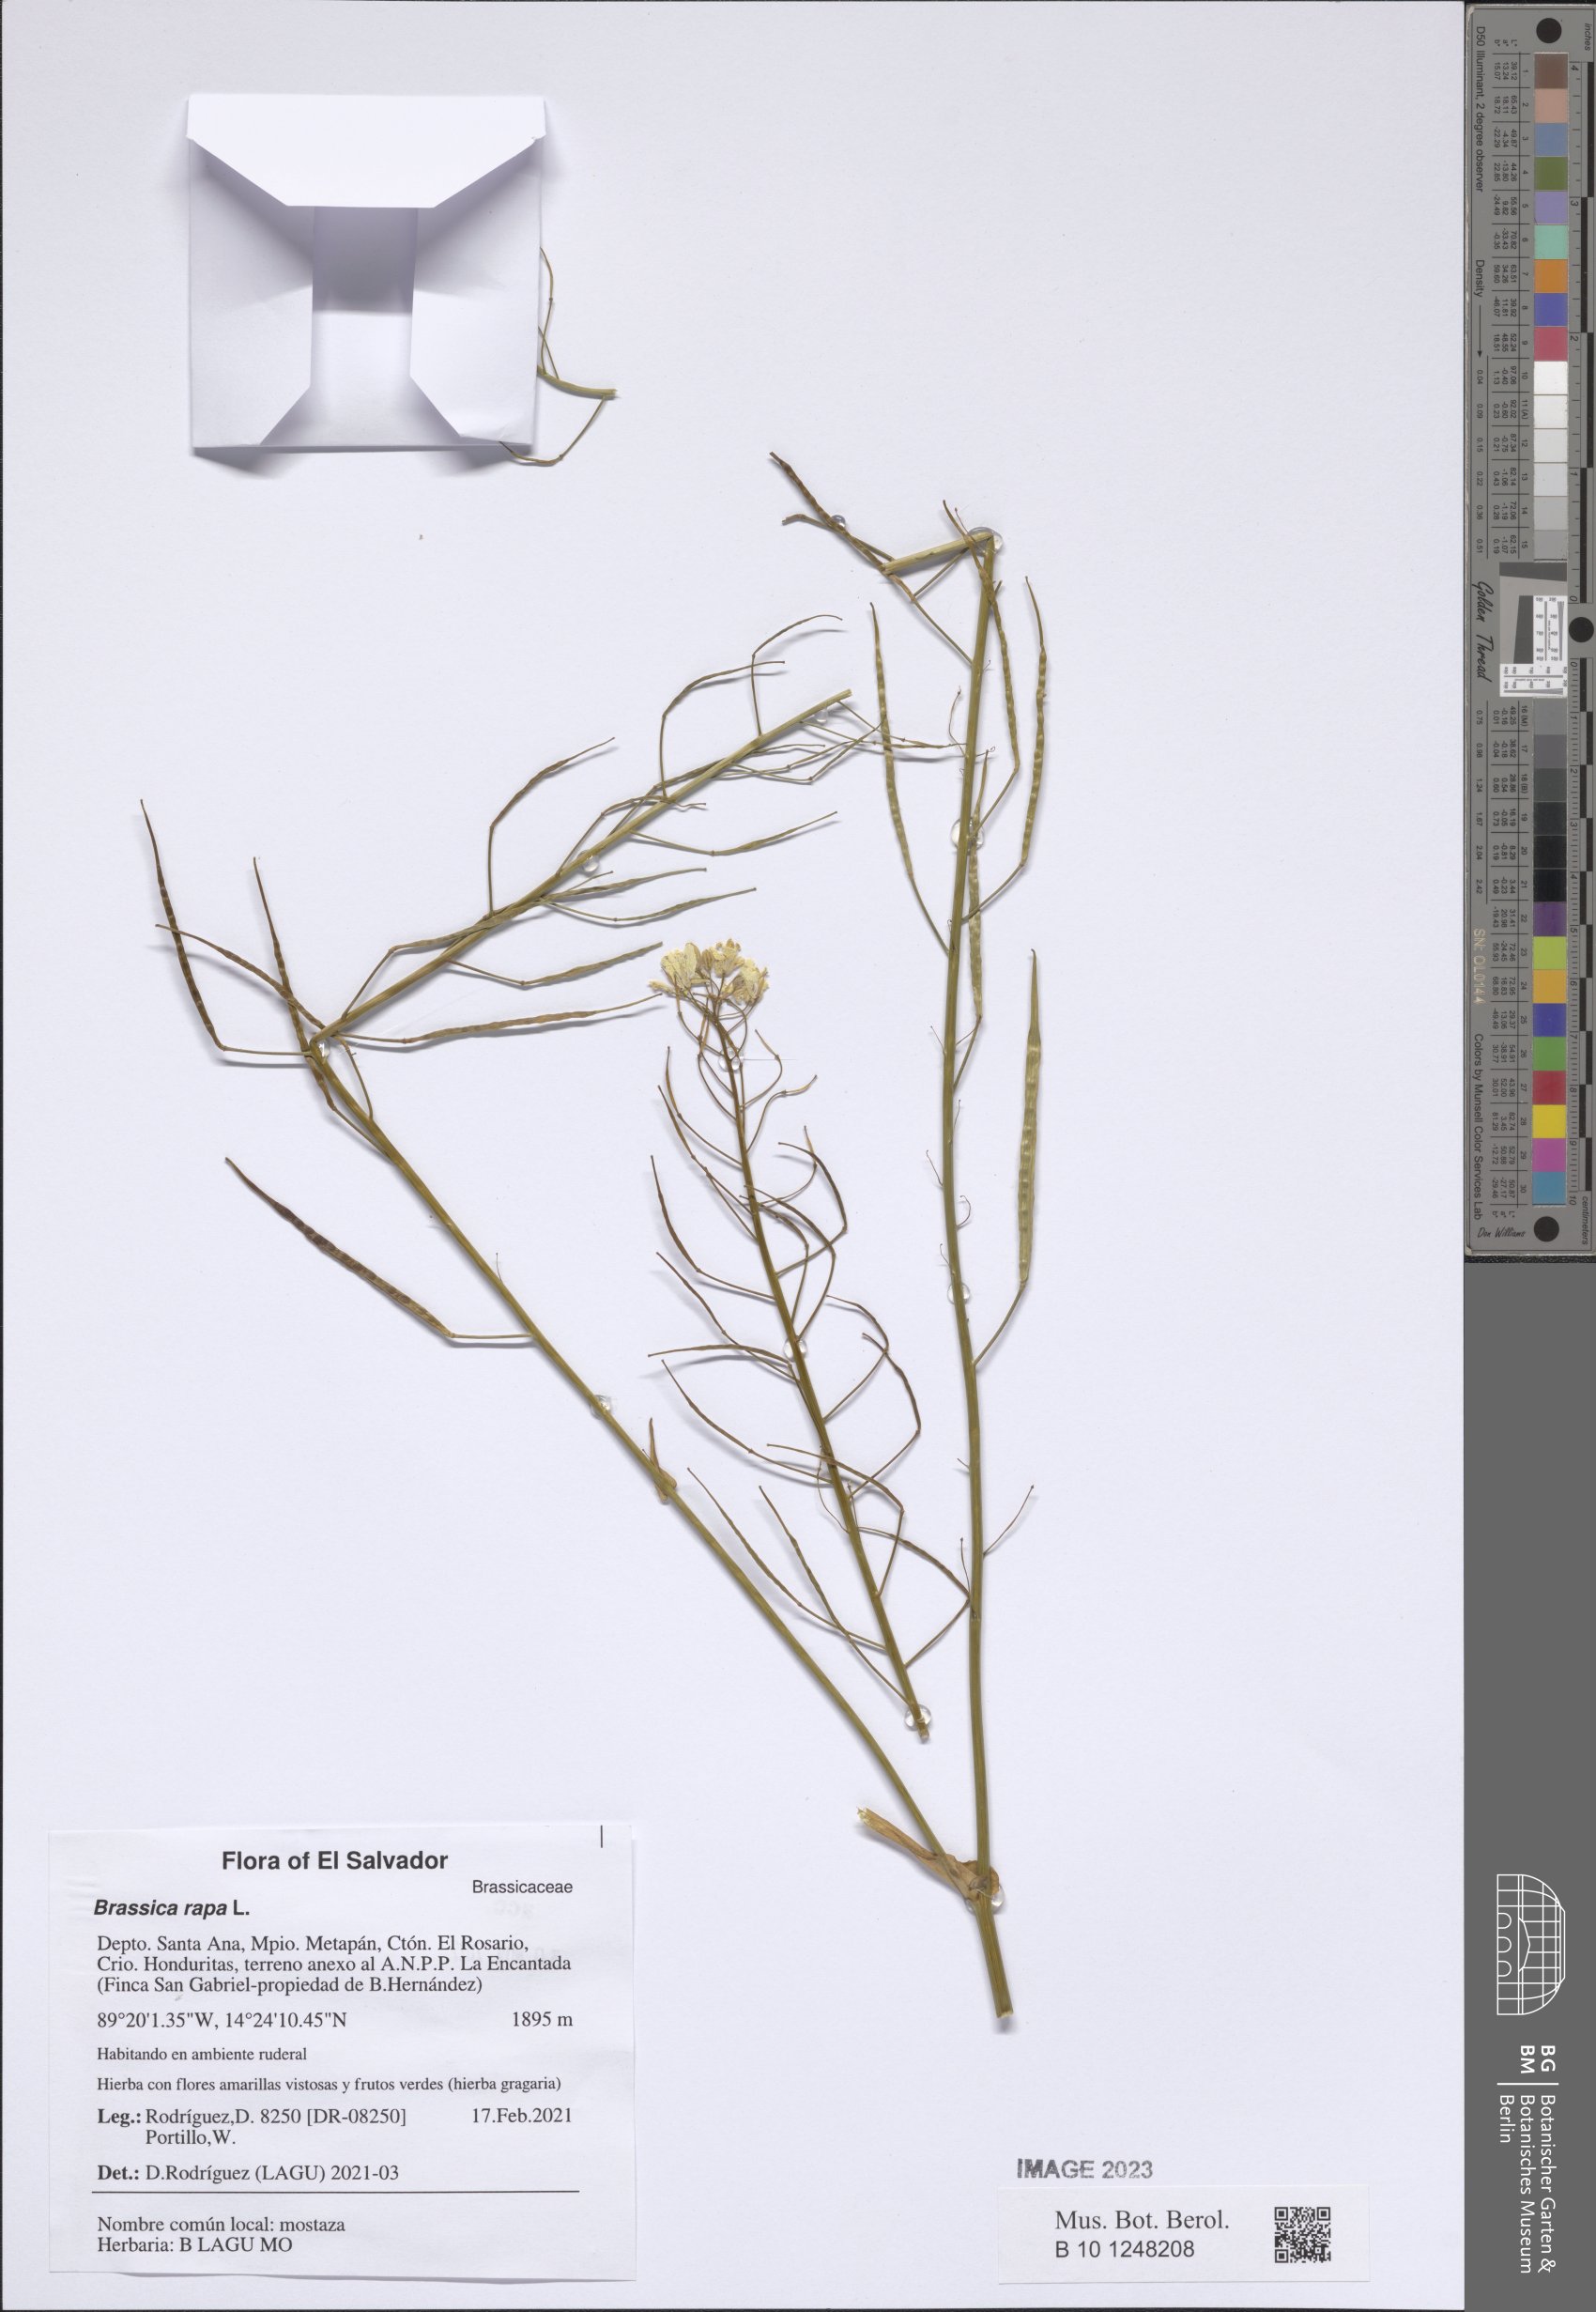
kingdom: Plantae
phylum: Tracheophyta
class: Magnoliopsida
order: Brassicales
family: Brassicaceae
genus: Brassica
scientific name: Brassica rapa
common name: Field mustard
